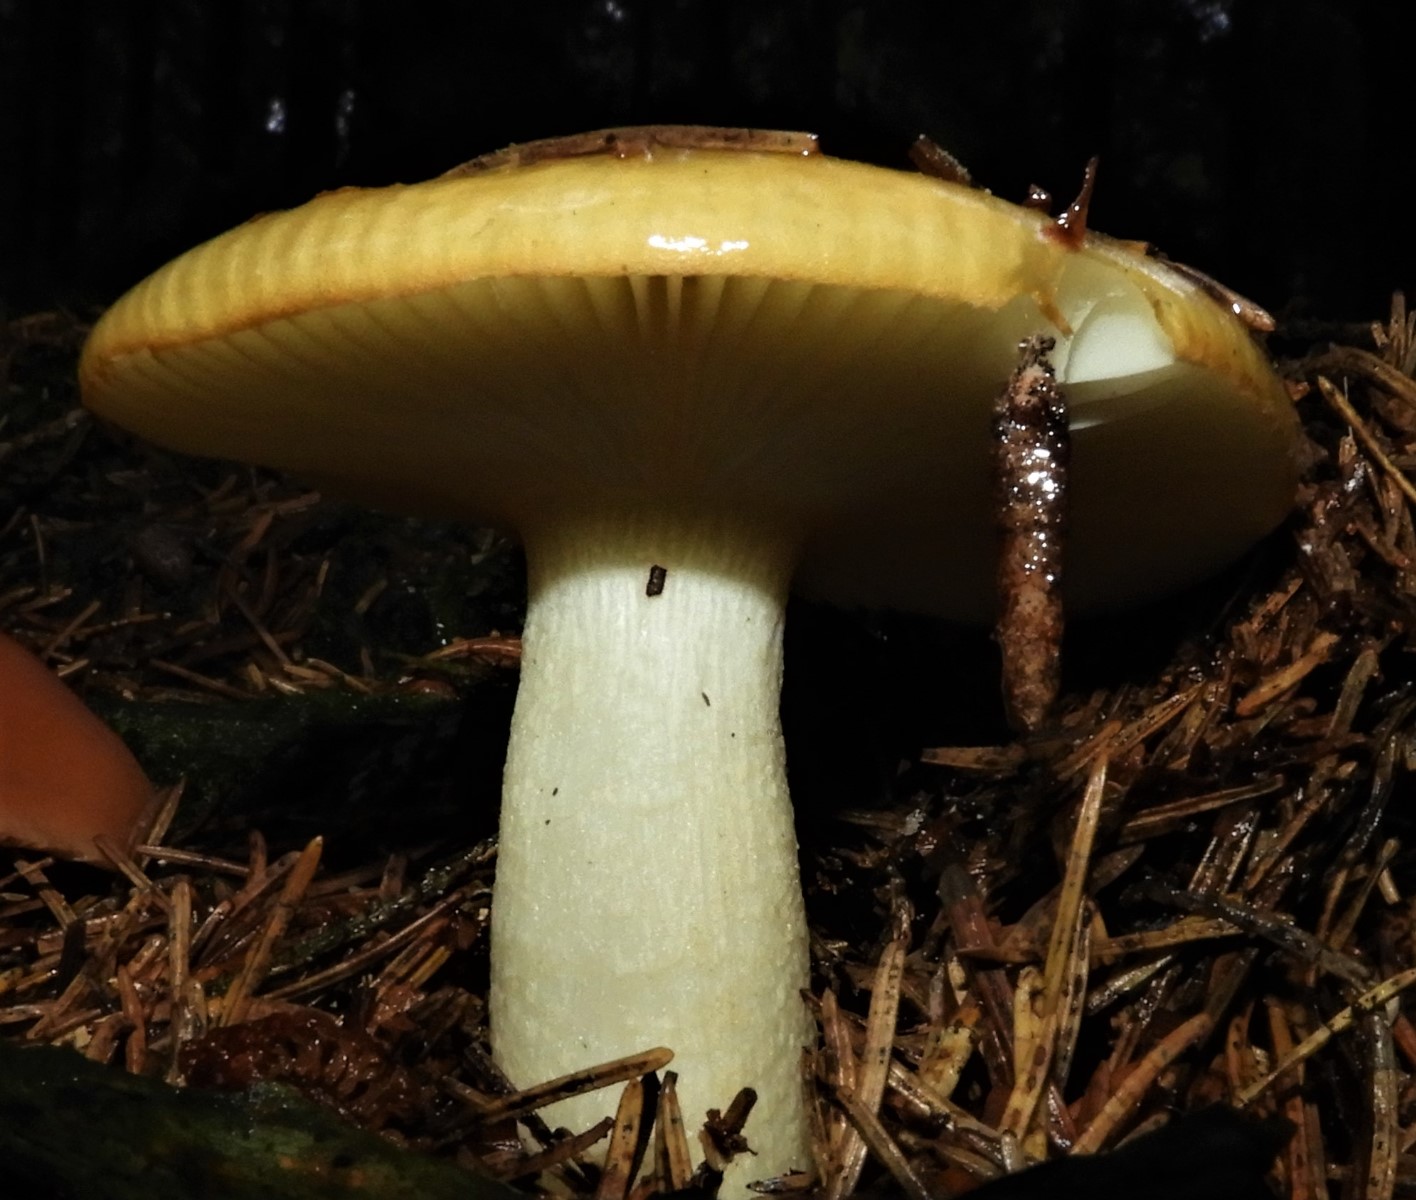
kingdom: Fungi
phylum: Basidiomycota
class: Agaricomycetes
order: Russulales
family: Russulaceae
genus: Russula
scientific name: Russula ochroleuca
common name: okkergul skørhat
